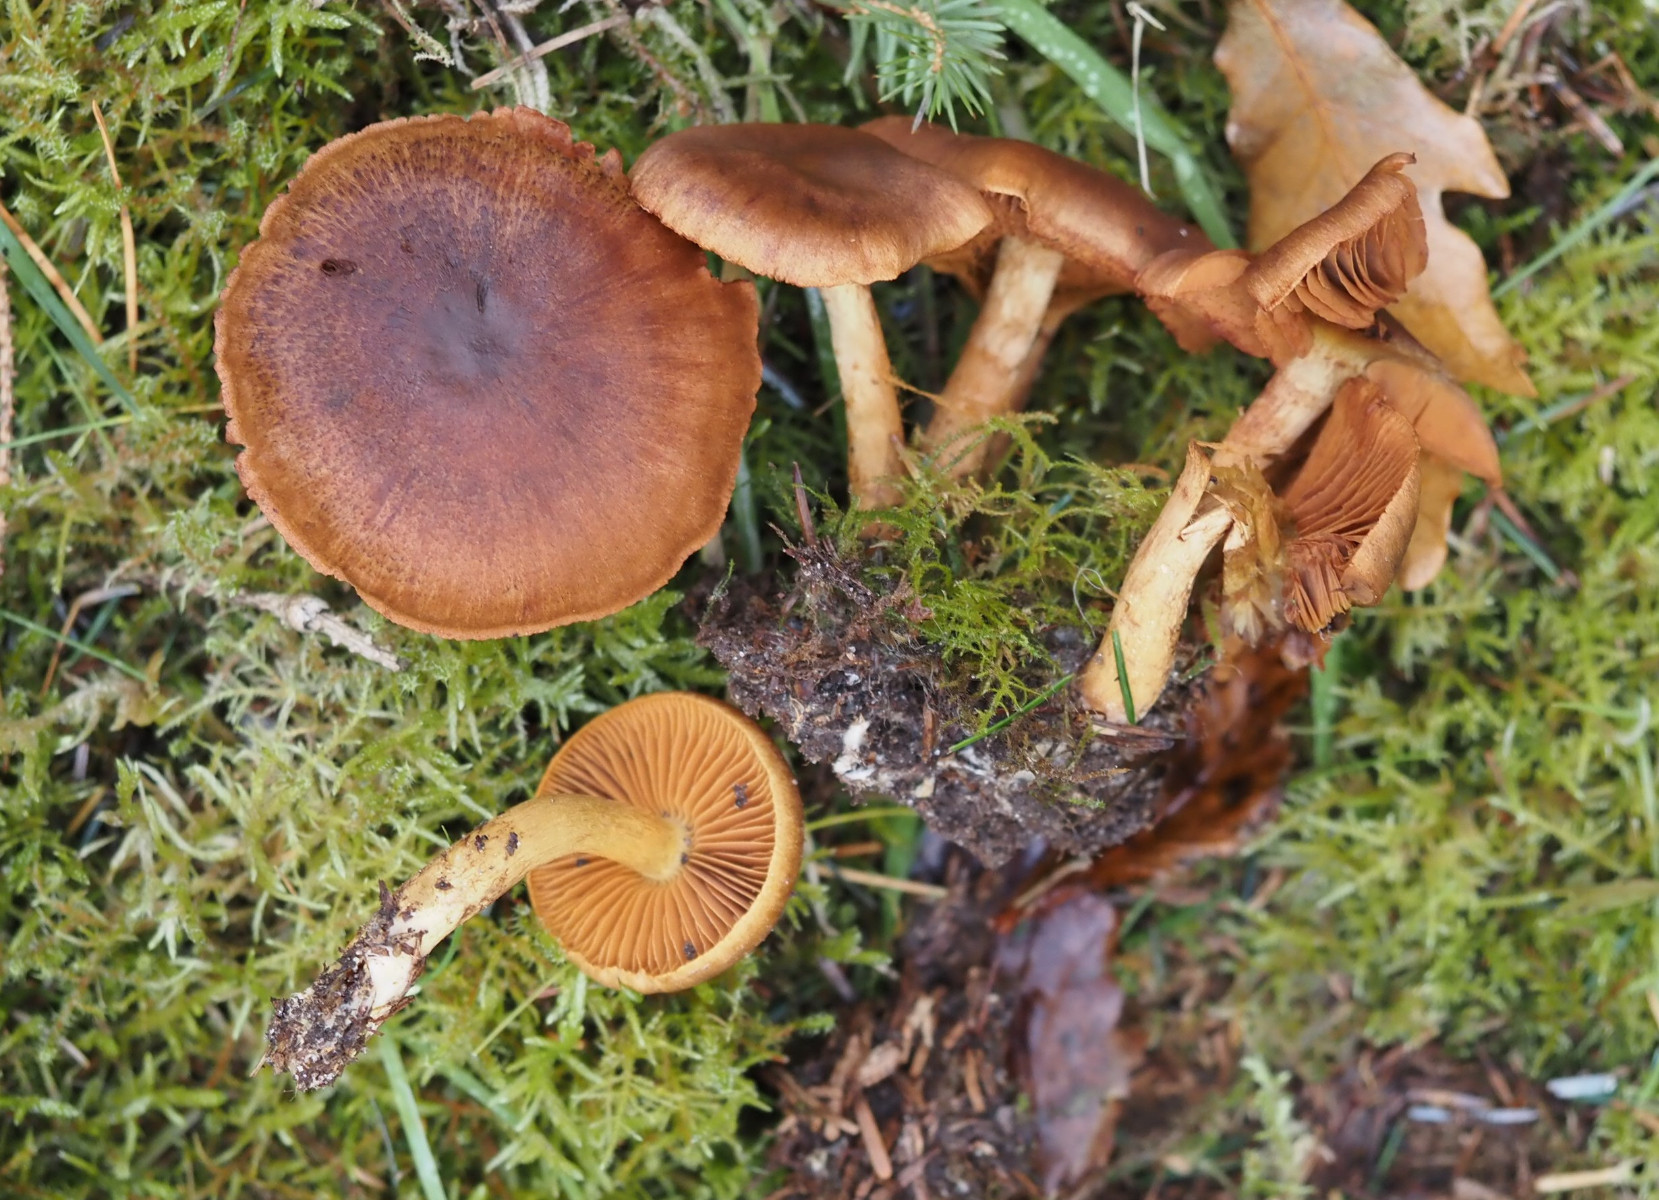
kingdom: Fungi
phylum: Basidiomycota
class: Agaricomycetes
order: Agaricales
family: Cortinariaceae
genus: Cortinarius
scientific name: Cortinarius cinnamomeus
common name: kanel-slørhat
